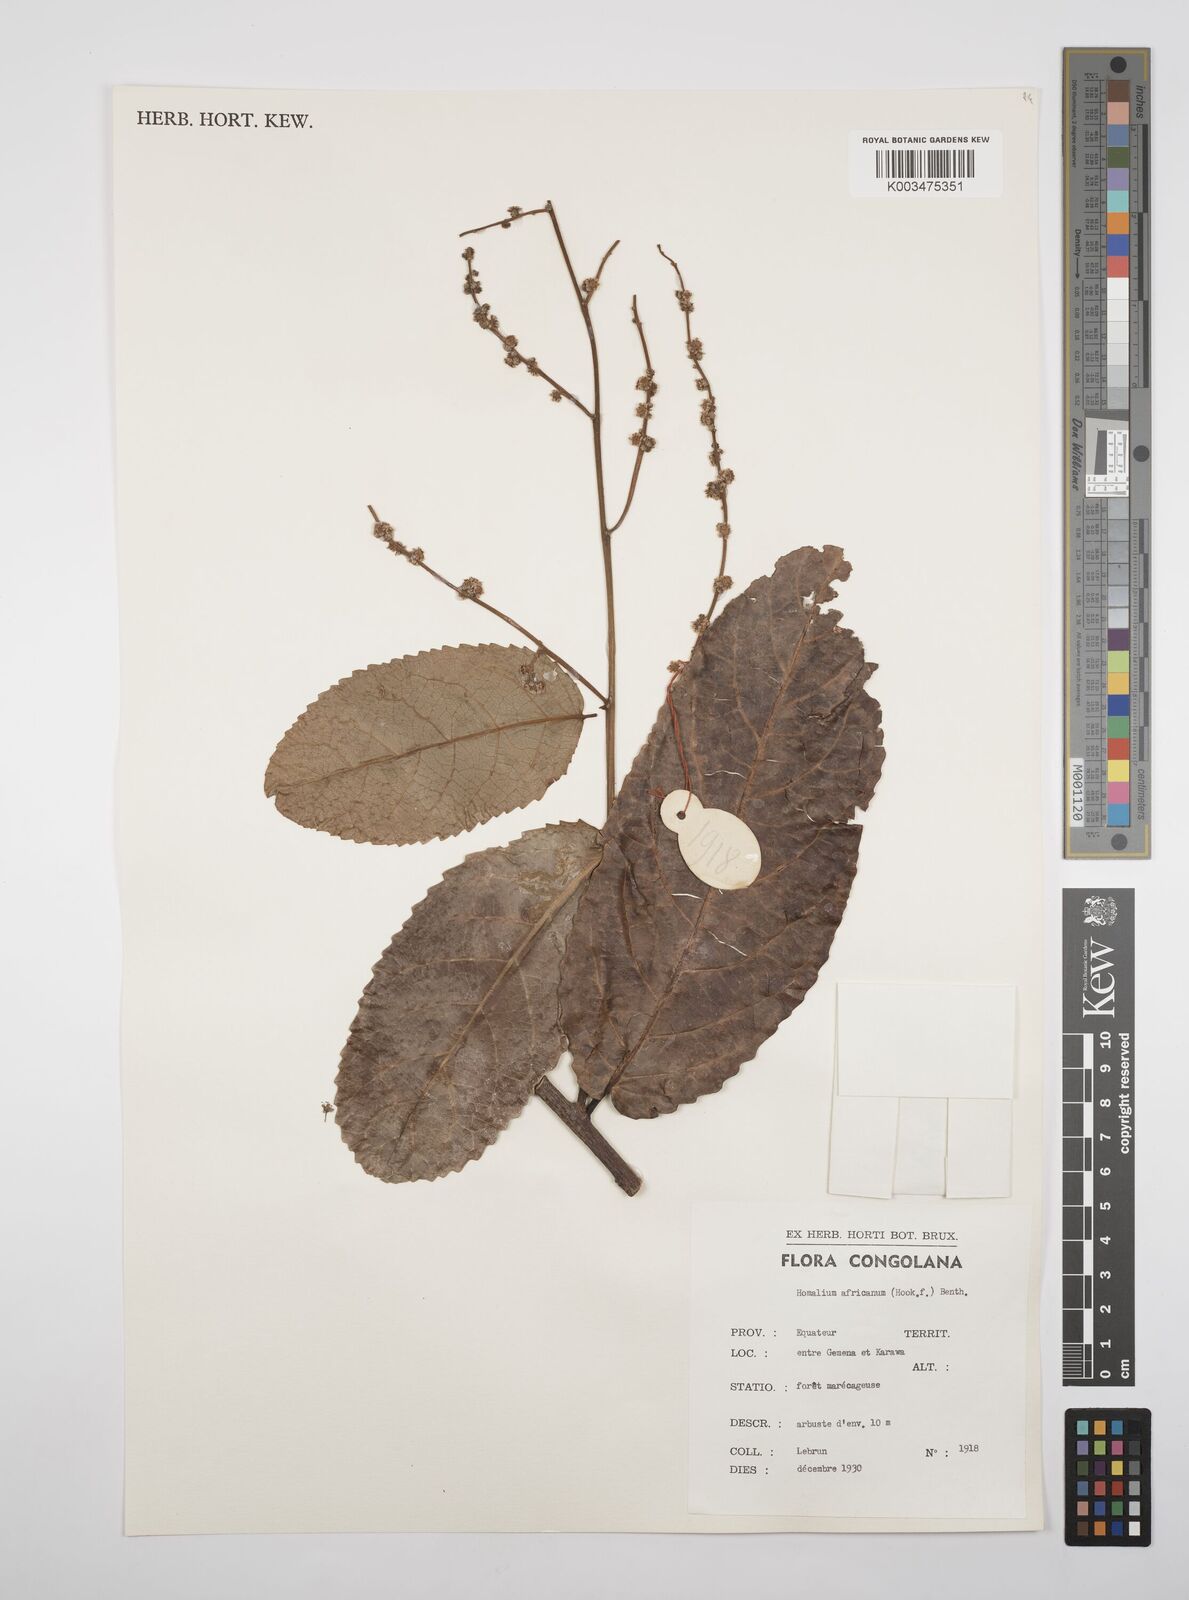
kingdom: Plantae
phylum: Tracheophyta
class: Magnoliopsida
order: Malpighiales
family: Salicaceae
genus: Homalium
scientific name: Homalium africanum
